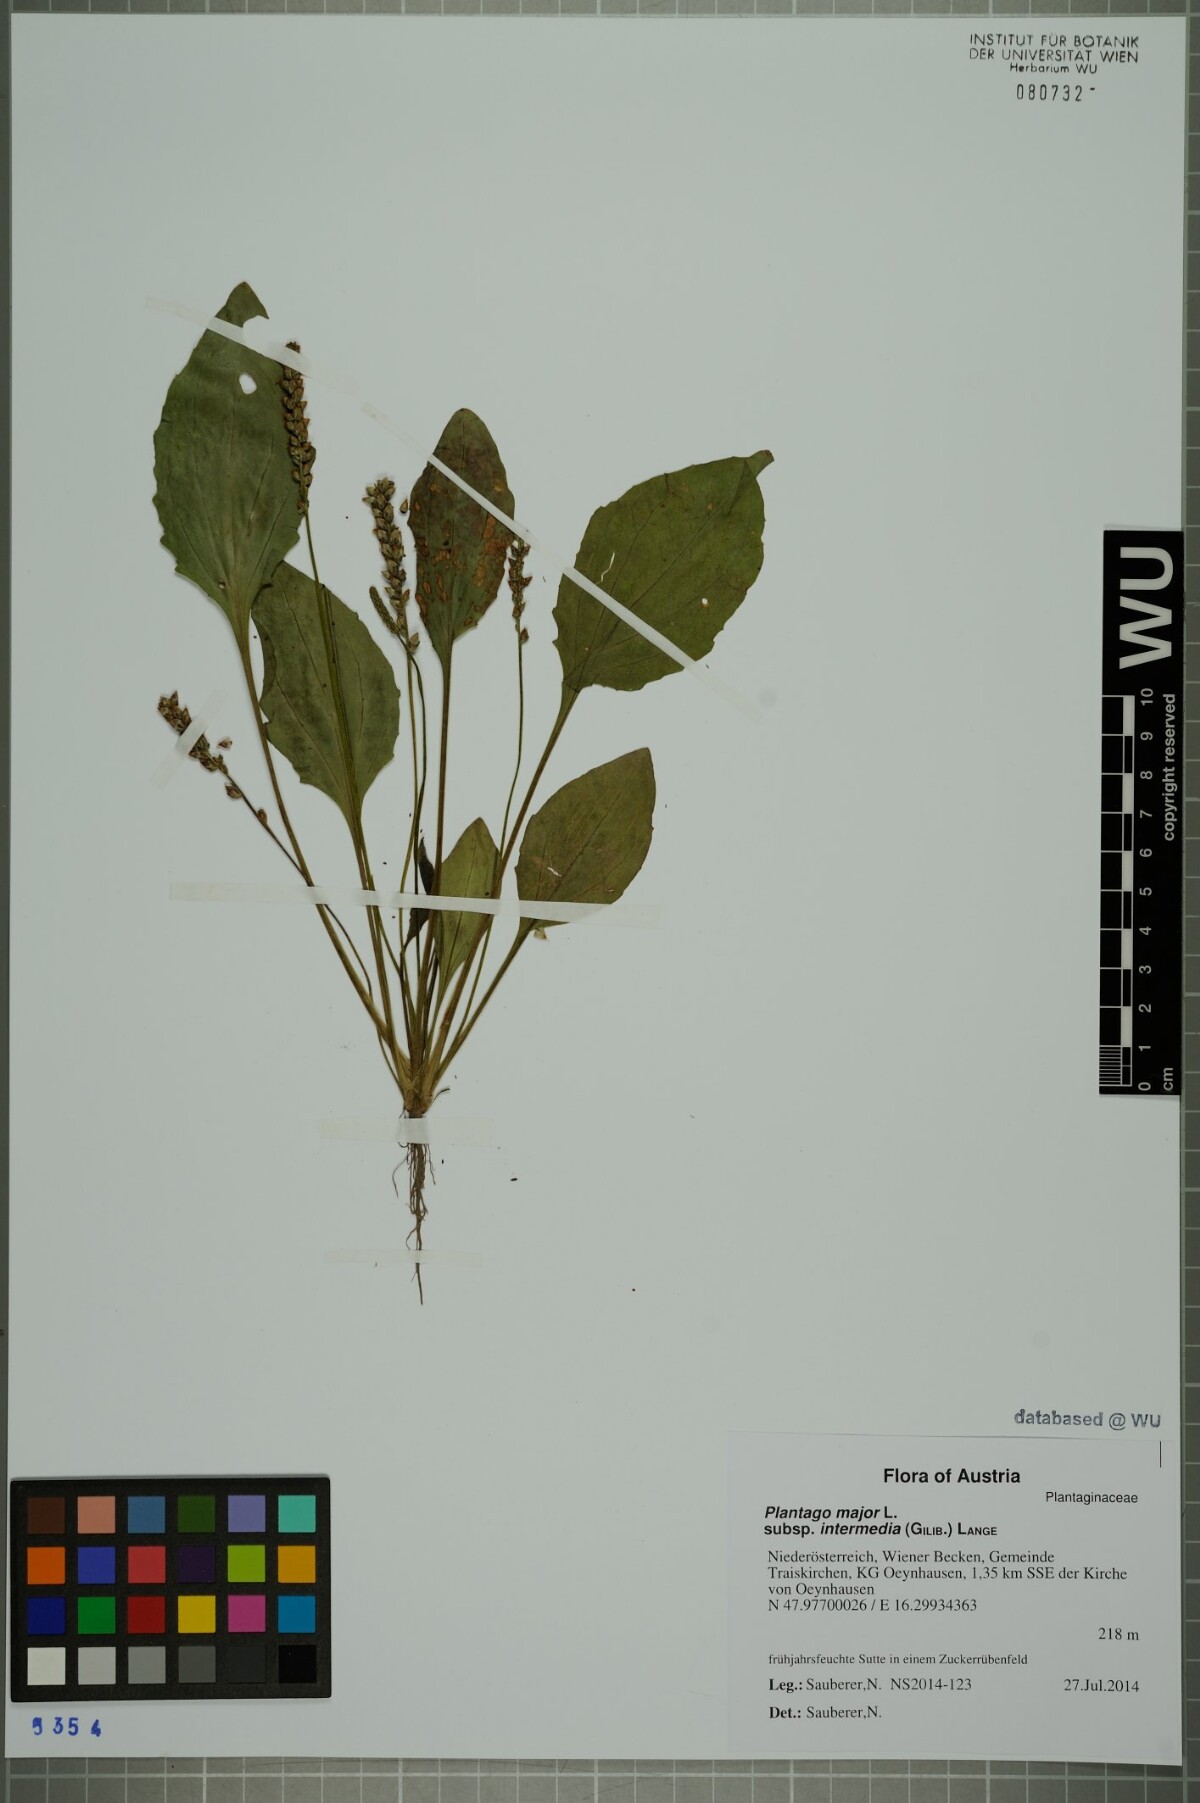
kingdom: Plantae
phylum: Tracheophyta
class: Magnoliopsida
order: Lamiales
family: Plantaginaceae
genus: Plantago
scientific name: Plantago uliginosa
